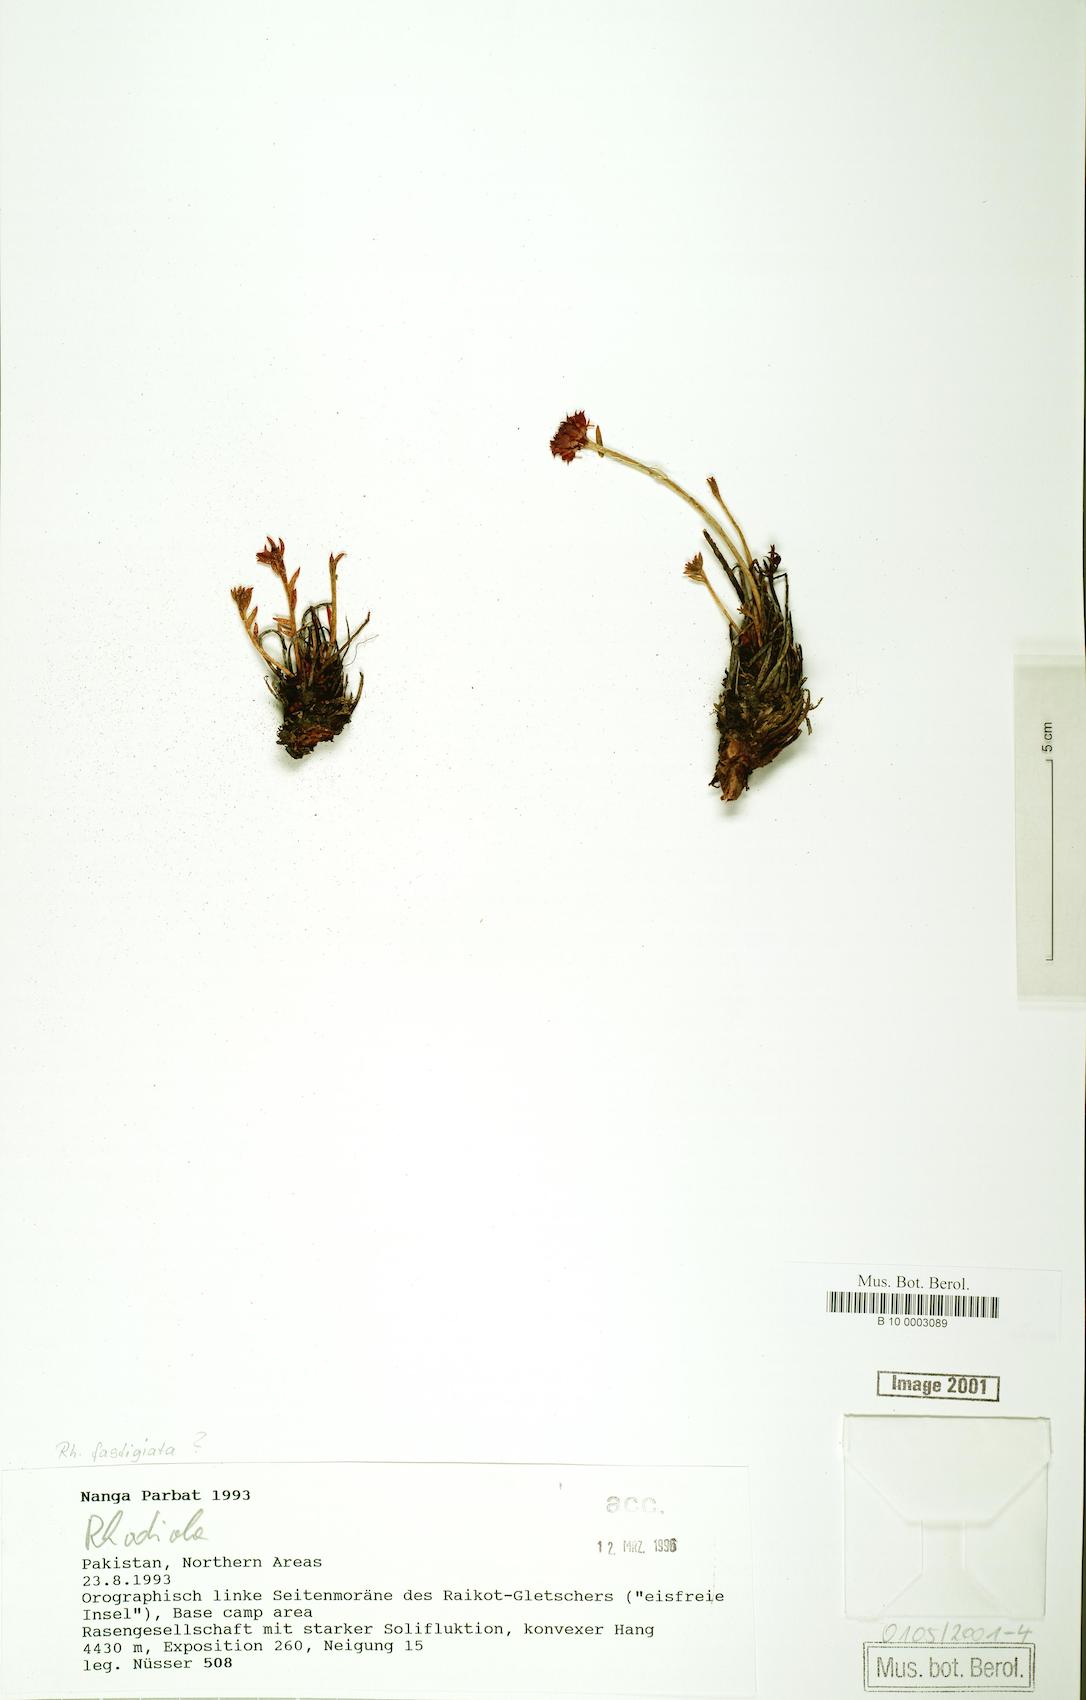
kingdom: Plantae
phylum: Tracheophyta
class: Magnoliopsida
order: Saxifragales
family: Crassulaceae
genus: Rhodiola
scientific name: Rhodiola fastigiata
